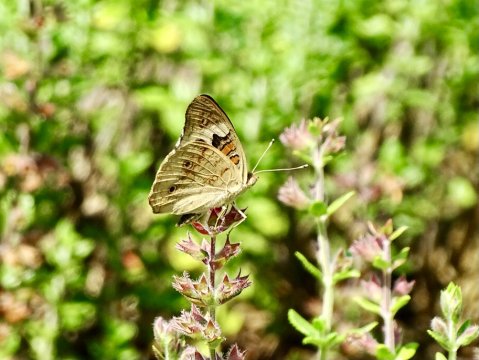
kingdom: Animalia
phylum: Arthropoda
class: Insecta
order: Lepidoptera
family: Nymphalidae
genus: Junonia
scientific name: Junonia coenia
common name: Common Buckeye
